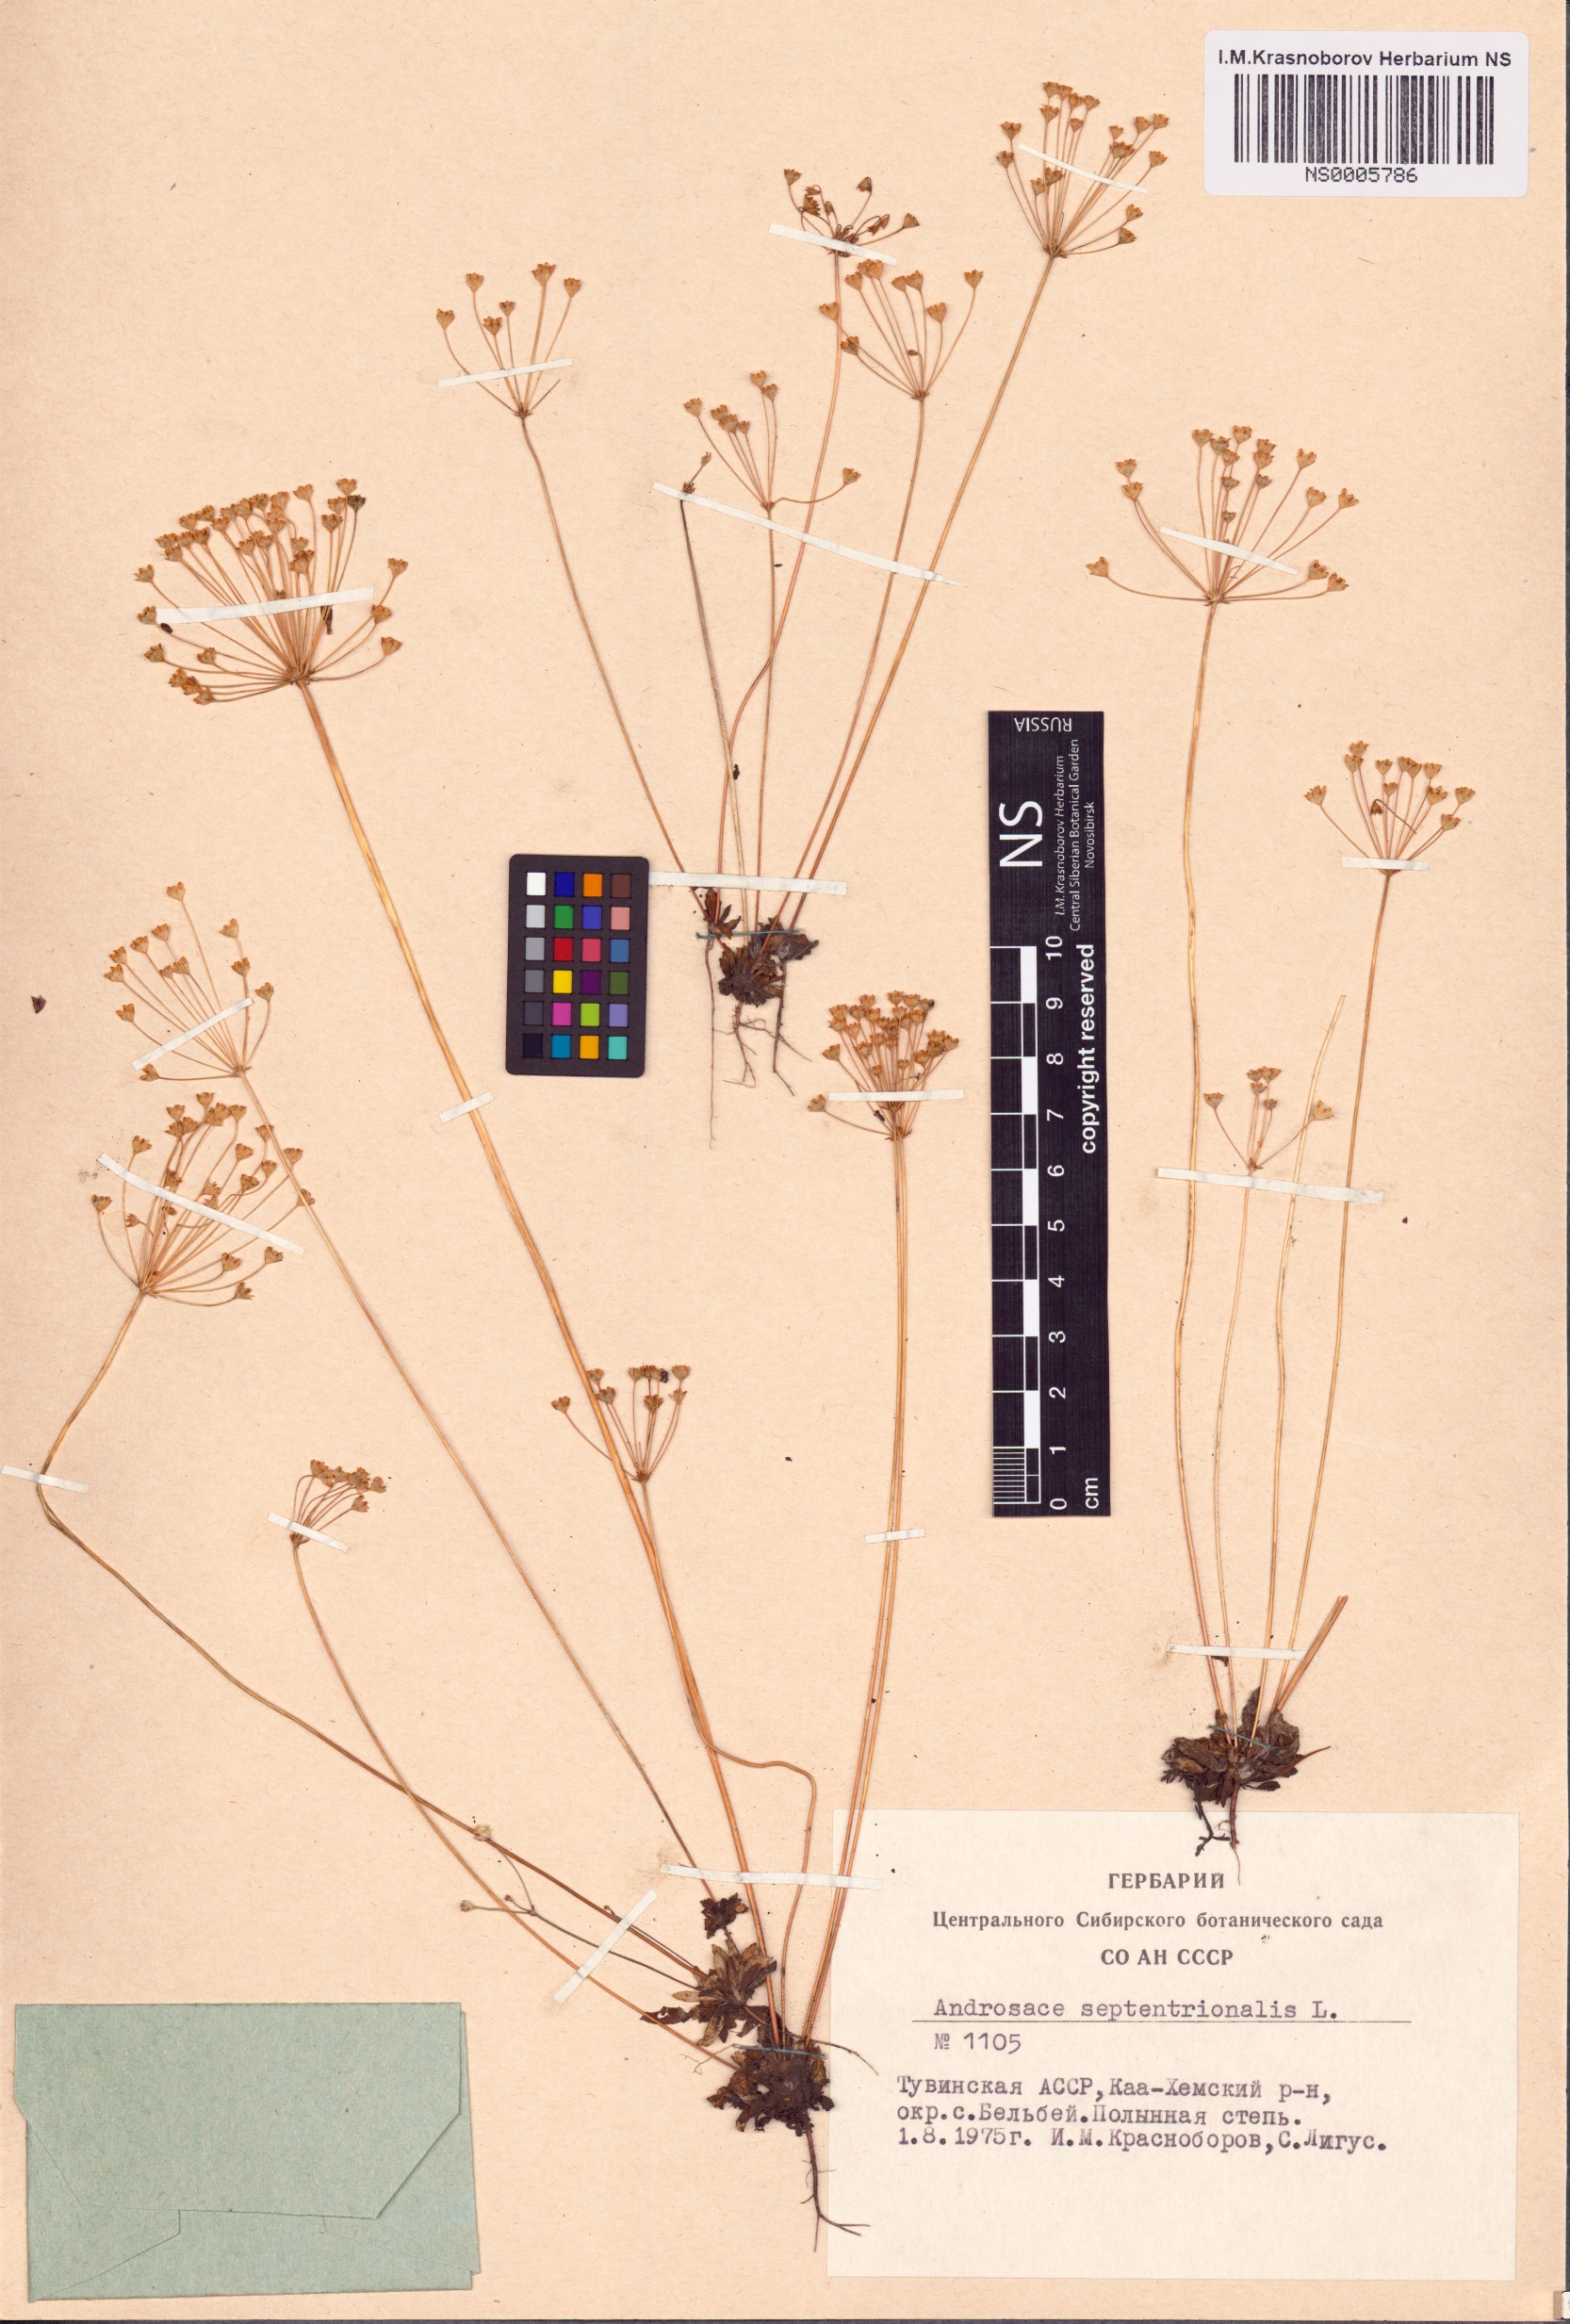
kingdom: Plantae
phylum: Tracheophyta
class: Magnoliopsida
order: Ericales
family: Primulaceae
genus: Androsace
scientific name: Androsace septentrionalis
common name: Hairy northern fairy-candelabra
